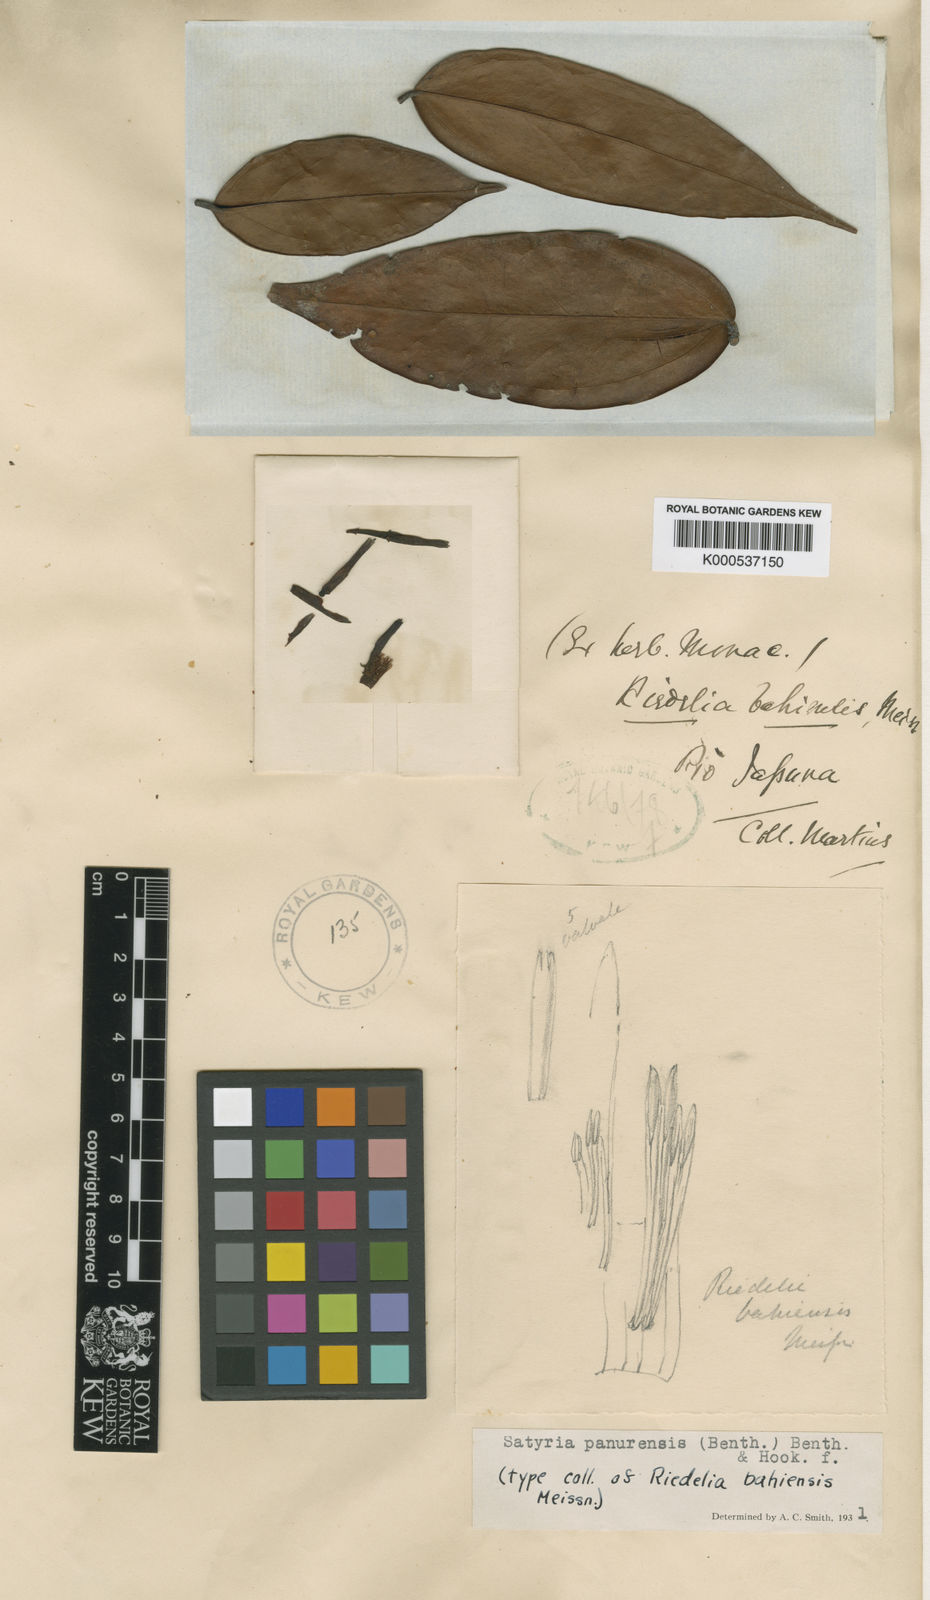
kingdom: Plantae
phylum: Tracheophyta
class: Magnoliopsida
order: Ericales
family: Ericaceae
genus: Satyria
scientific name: Satyria panurensis
